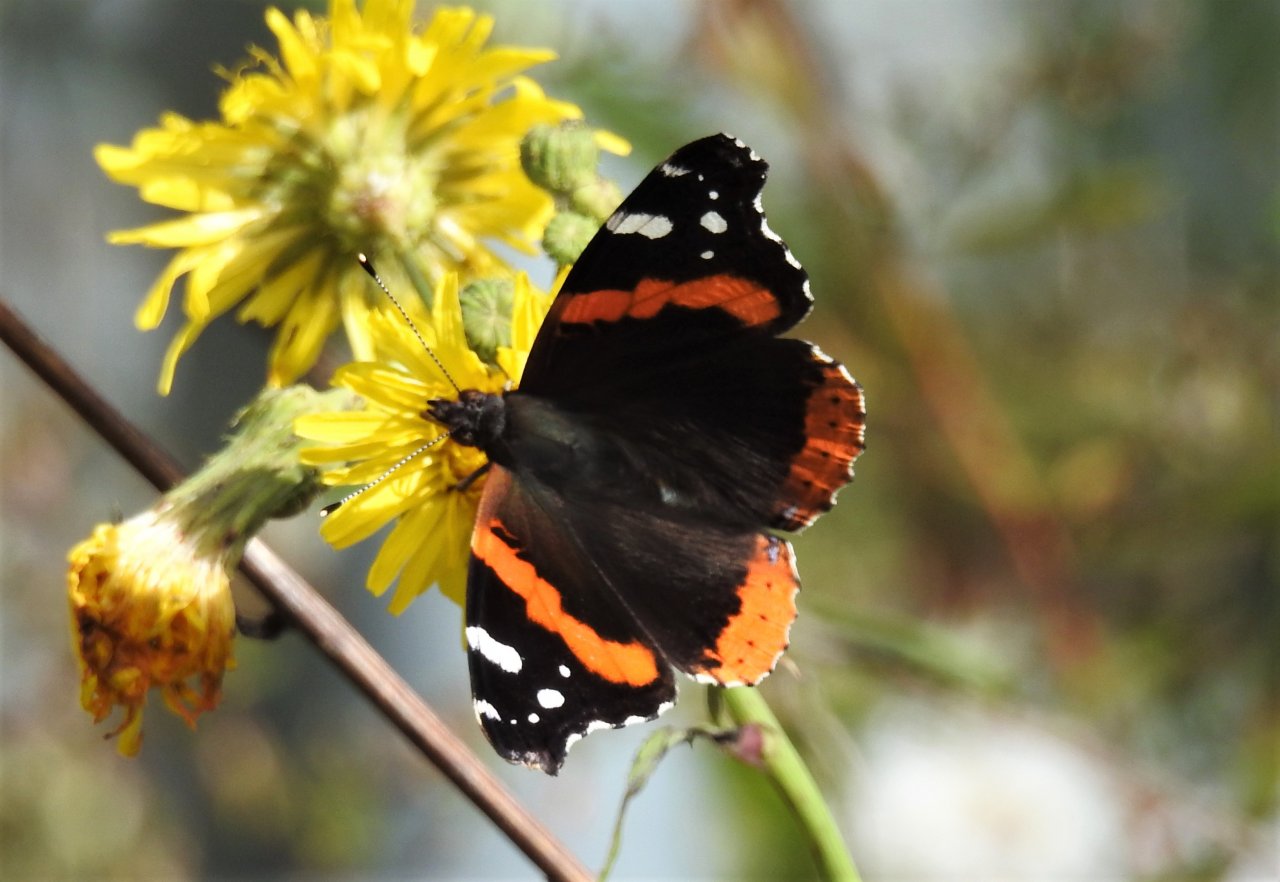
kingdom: Animalia
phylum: Arthropoda
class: Insecta
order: Lepidoptera
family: Nymphalidae
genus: Vanessa
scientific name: Vanessa atalanta
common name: Red Admiral
